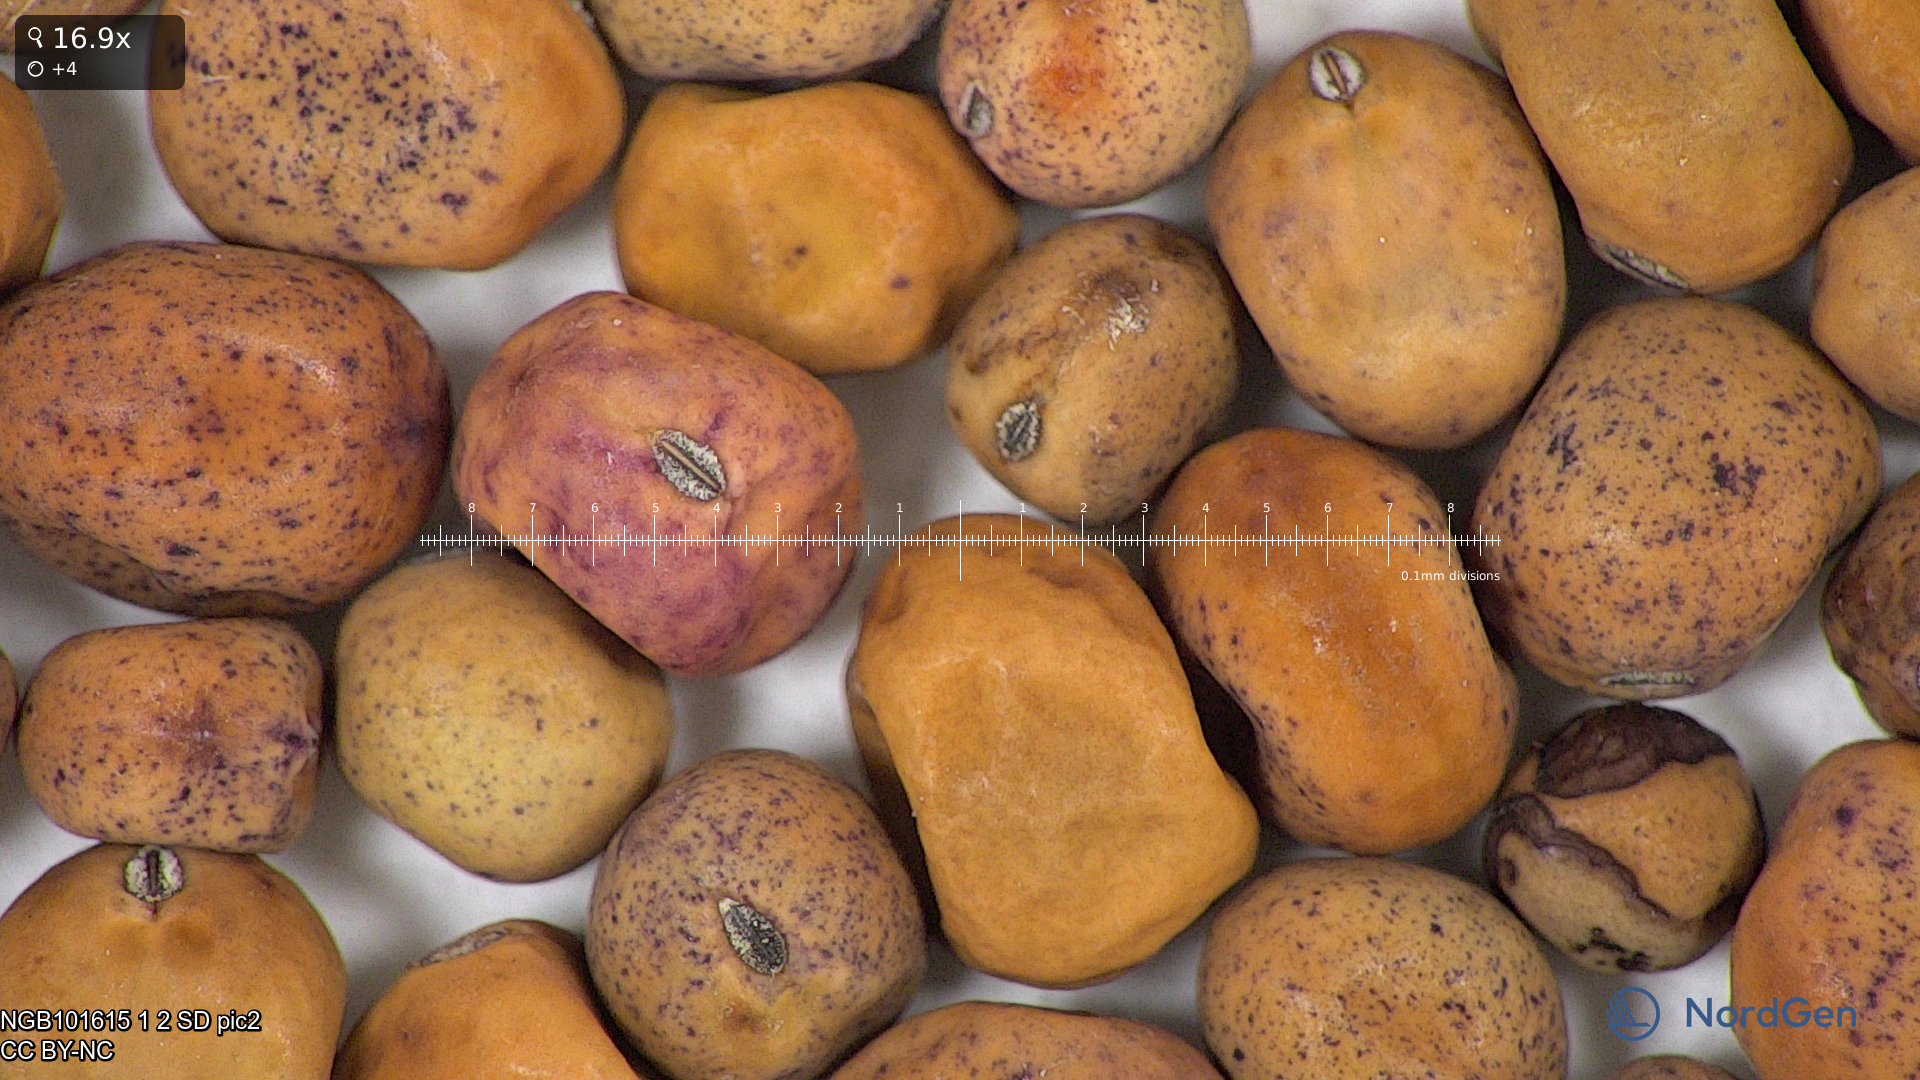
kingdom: Plantae
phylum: Tracheophyta
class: Magnoliopsida
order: Fabales
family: Fabaceae
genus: Lathyrus
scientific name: Lathyrus oleraceus
